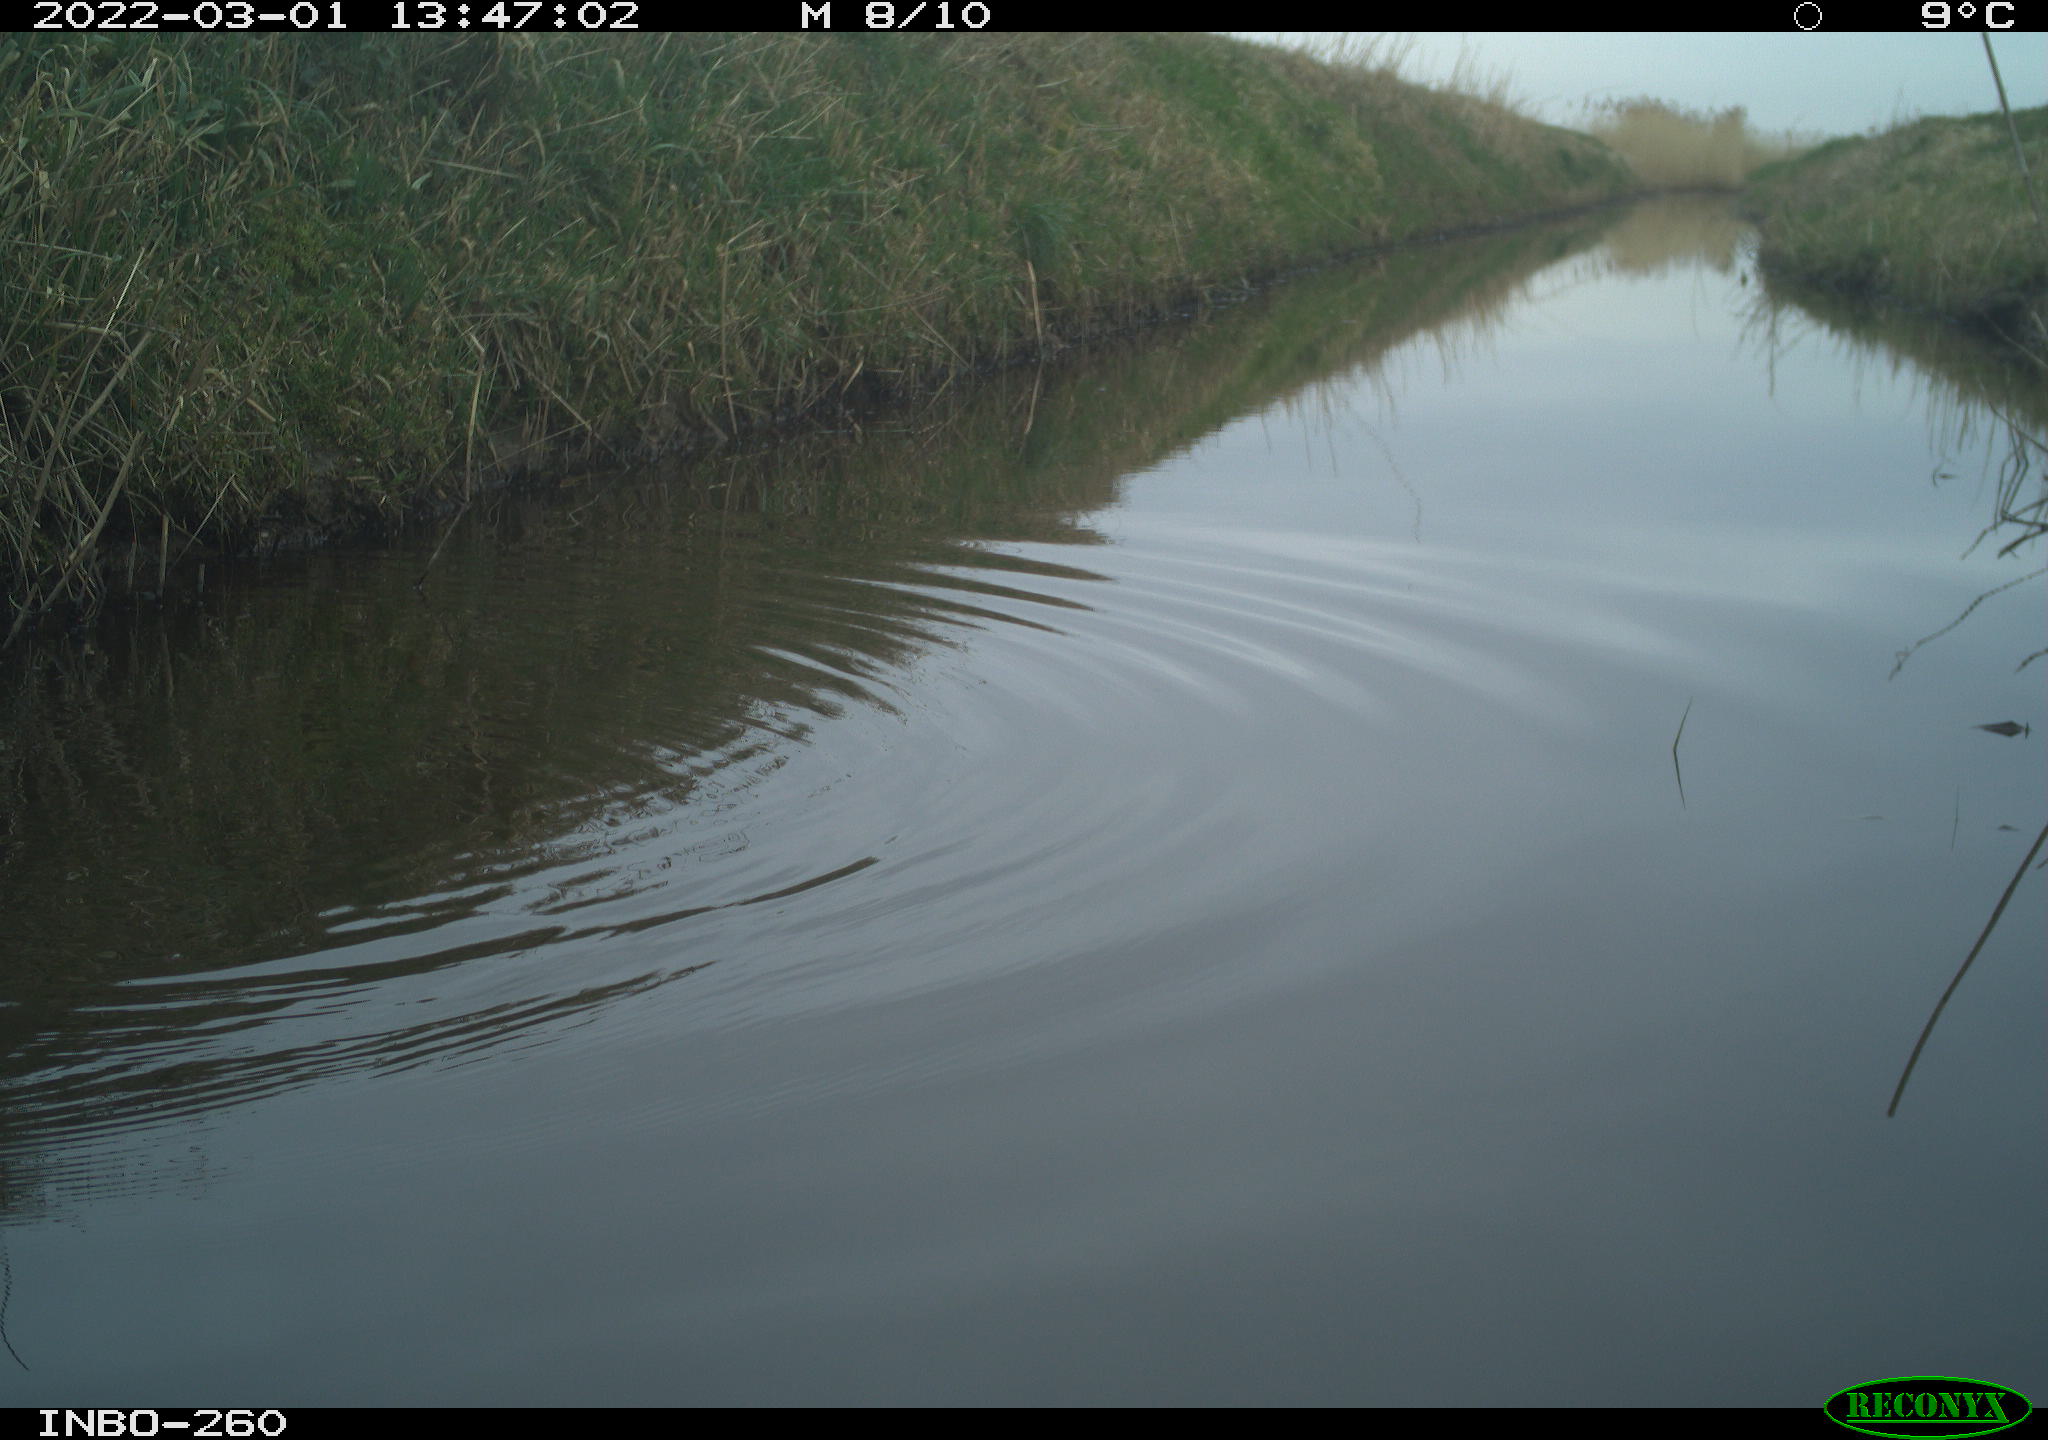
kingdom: Animalia
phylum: Chordata
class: Aves
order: Gruiformes
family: Rallidae
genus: Gallinula
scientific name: Gallinula chloropus
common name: Common moorhen
